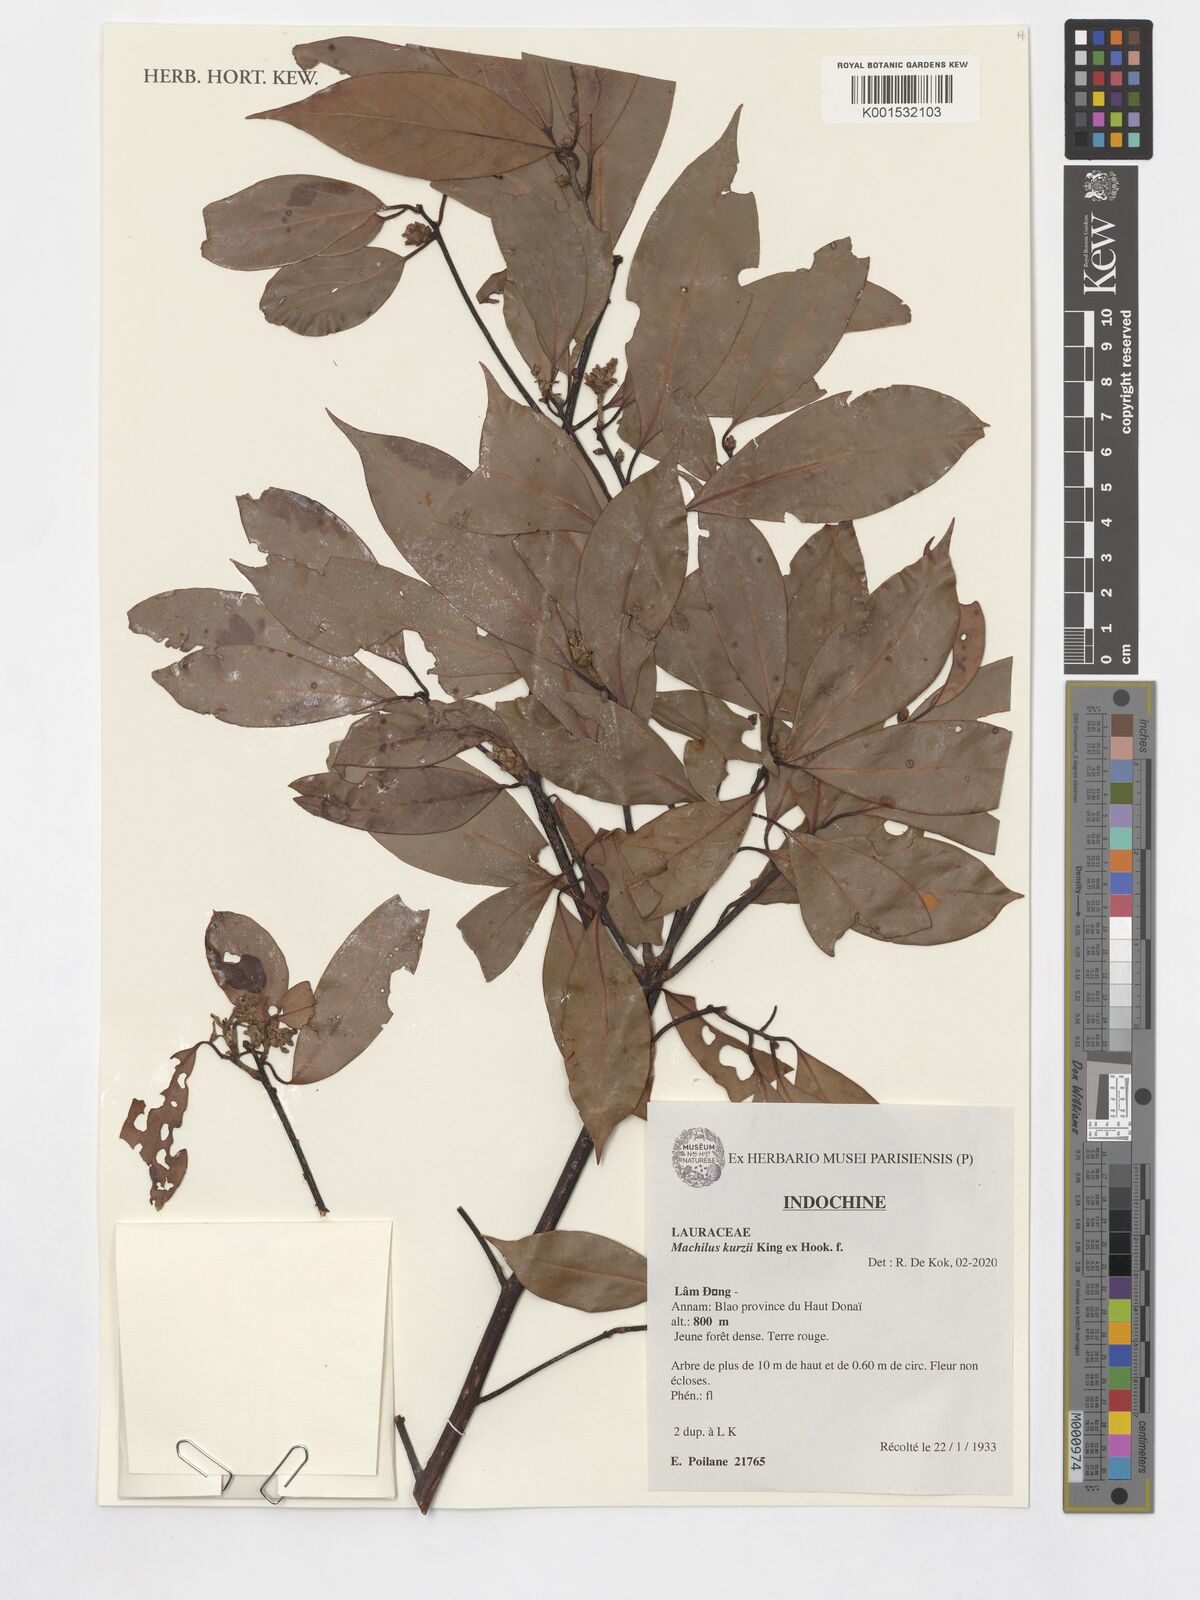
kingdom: Plantae
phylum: Tracheophyta
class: Magnoliopsida
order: Laurales
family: Lauraceae
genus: Machilus
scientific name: Machilus kurzii
